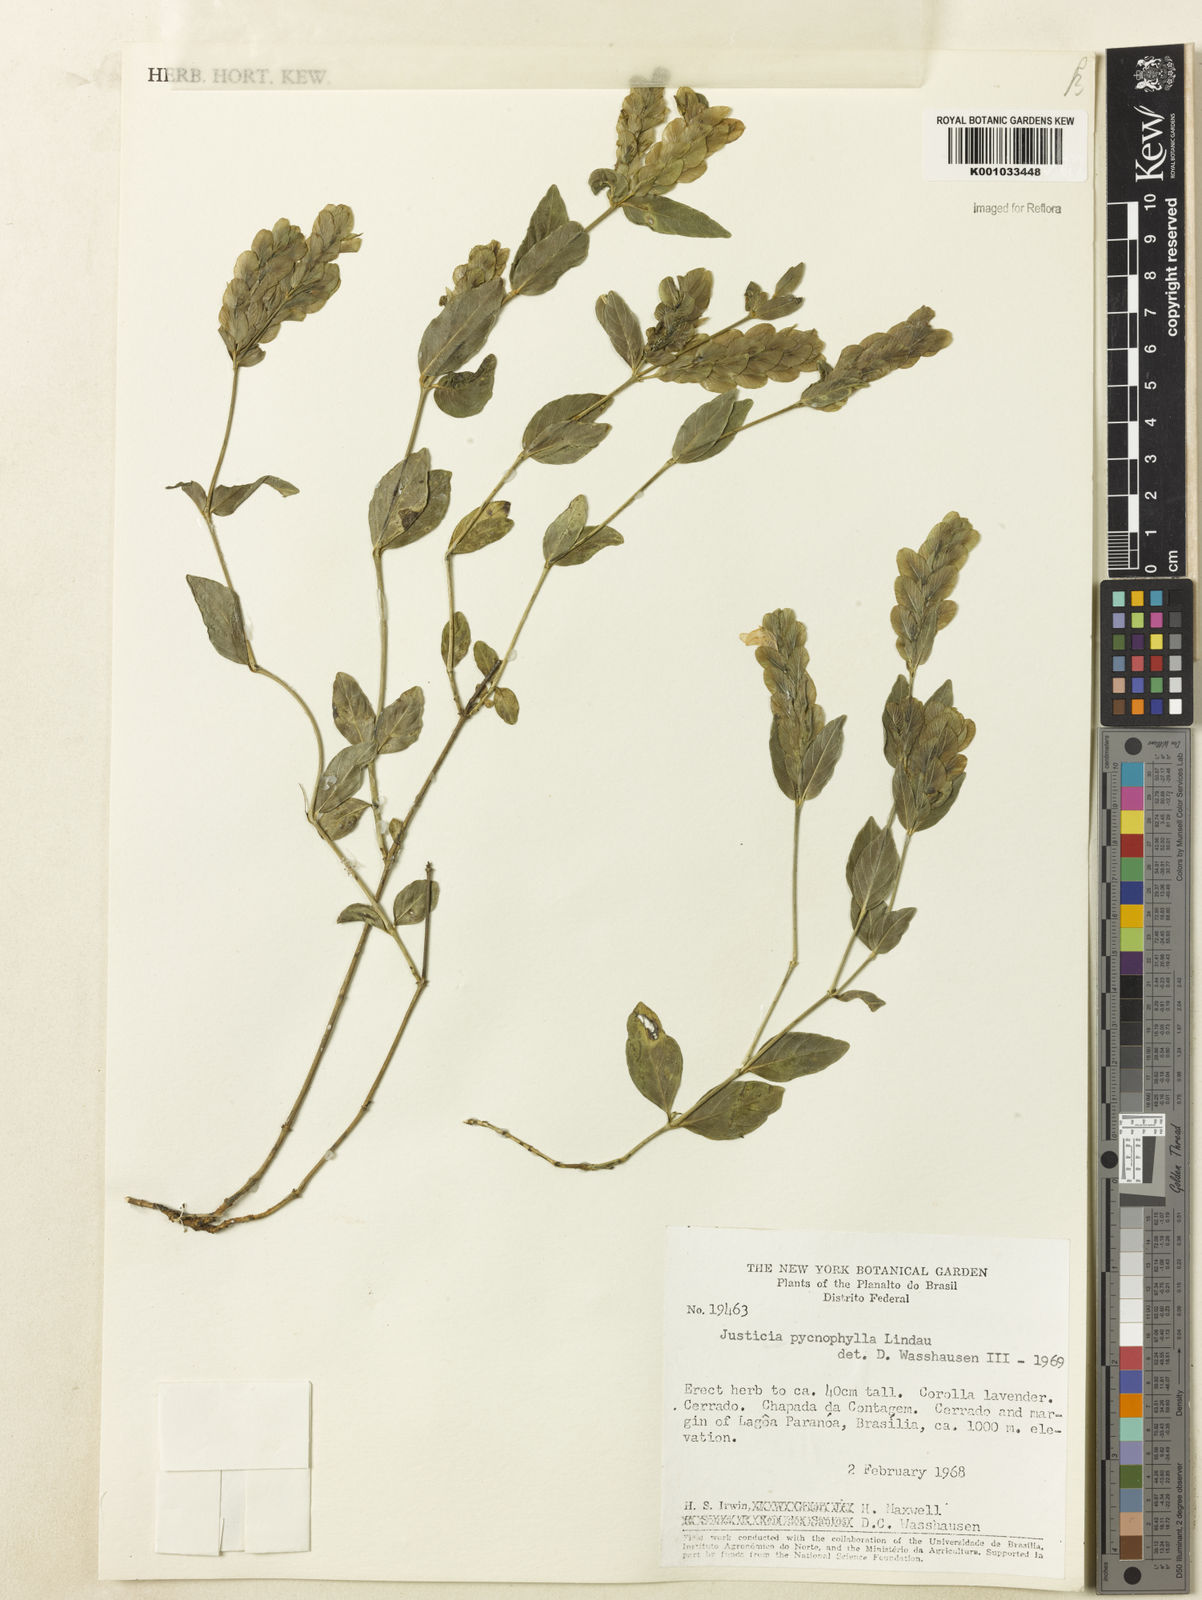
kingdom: Plantae
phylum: Tracheophyta
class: Magnoliopsida
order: Lamiales
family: Acanthaceae
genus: Justicia
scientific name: Justicia pycnophylla
